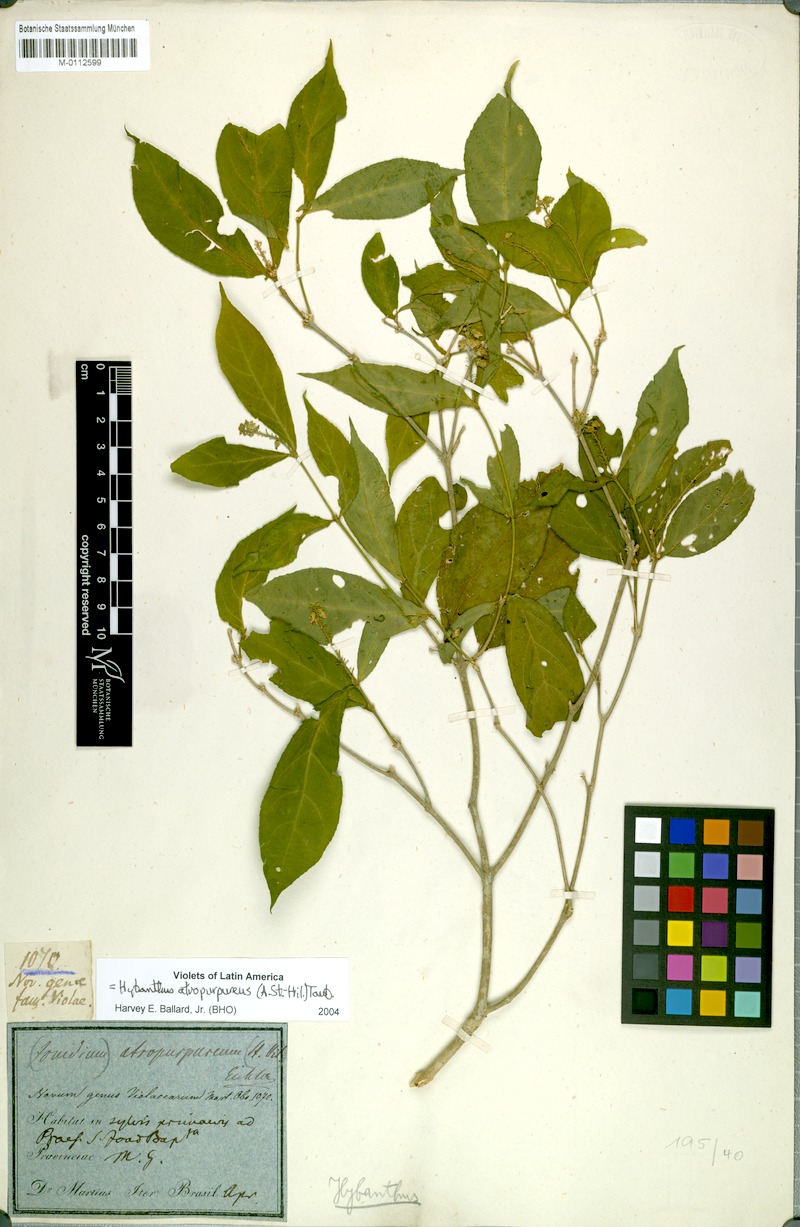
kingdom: Plantae
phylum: Tracheophyta
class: Magnoliopsida
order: Malpighiales
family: Violaceae
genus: Pombalia
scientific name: Pombalia atropurpurea
